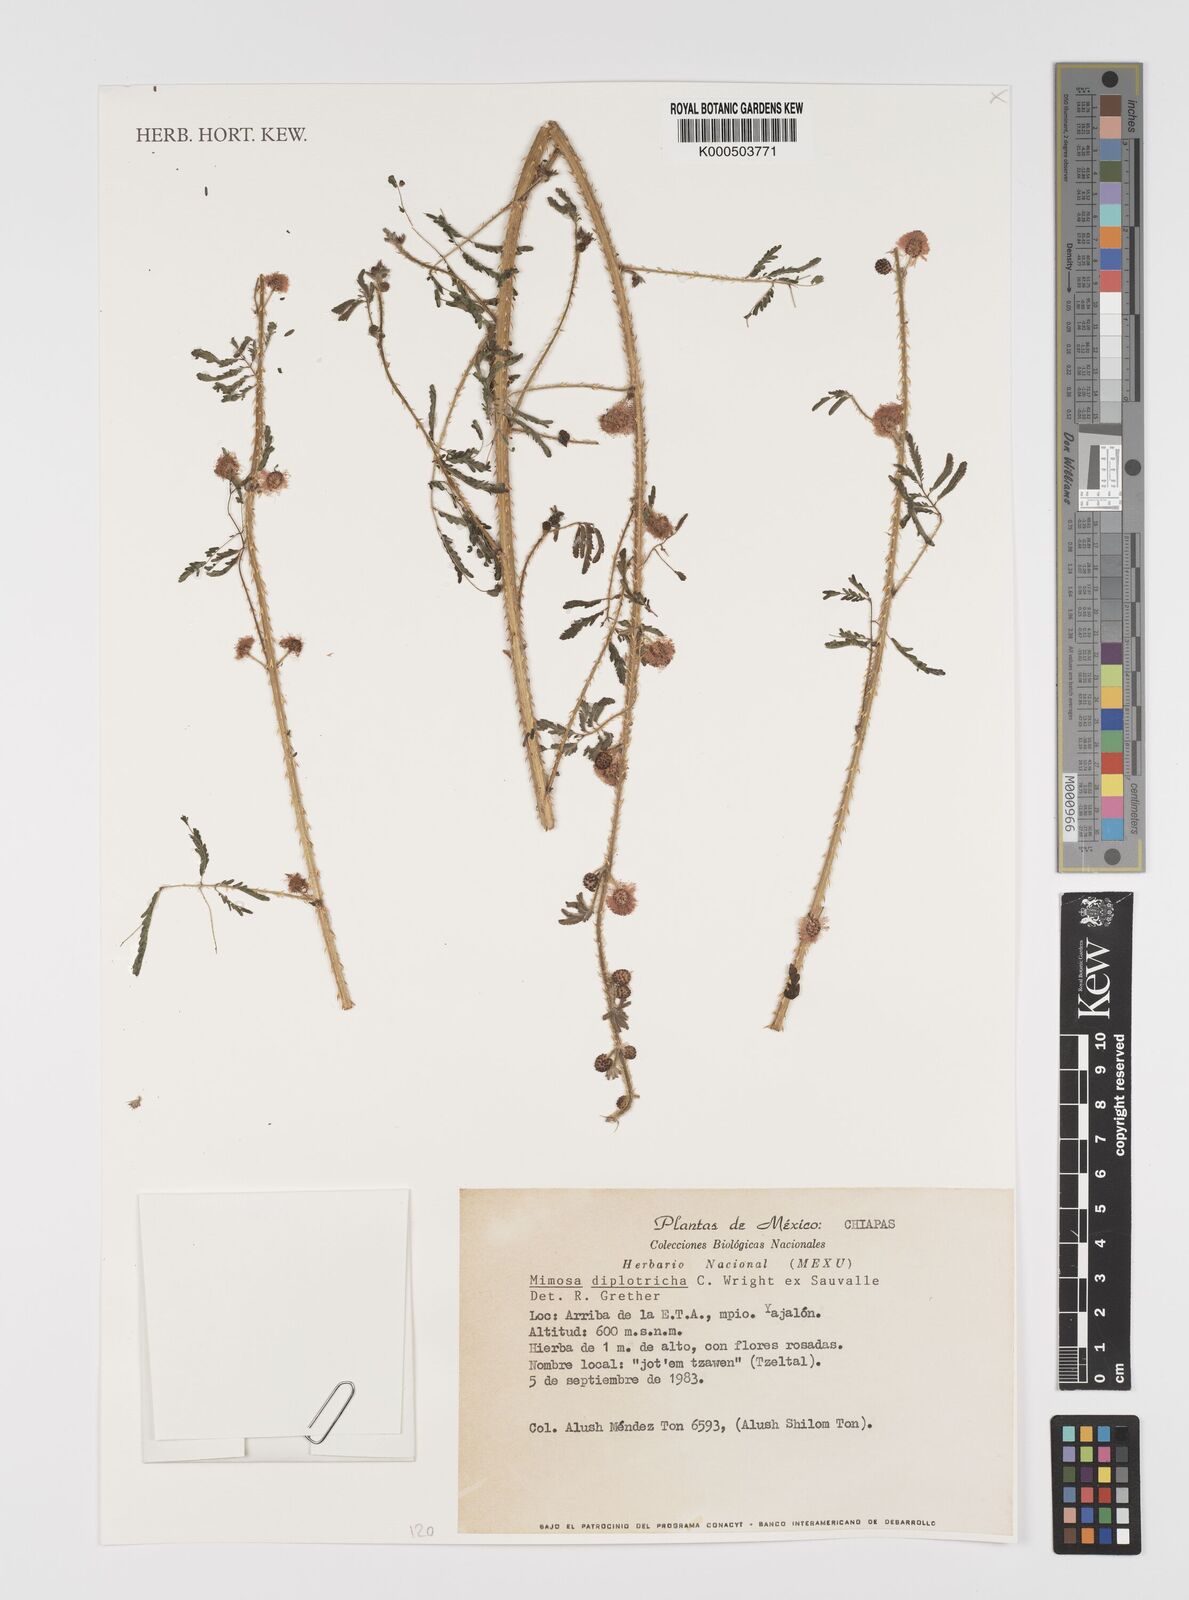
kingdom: Plantae
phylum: Tracheophyta
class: Magnoliopsida
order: Fabales
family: Fabaceae
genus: Mimosa
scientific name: Mimosa diplotricha
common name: Giant sensitive-plant
